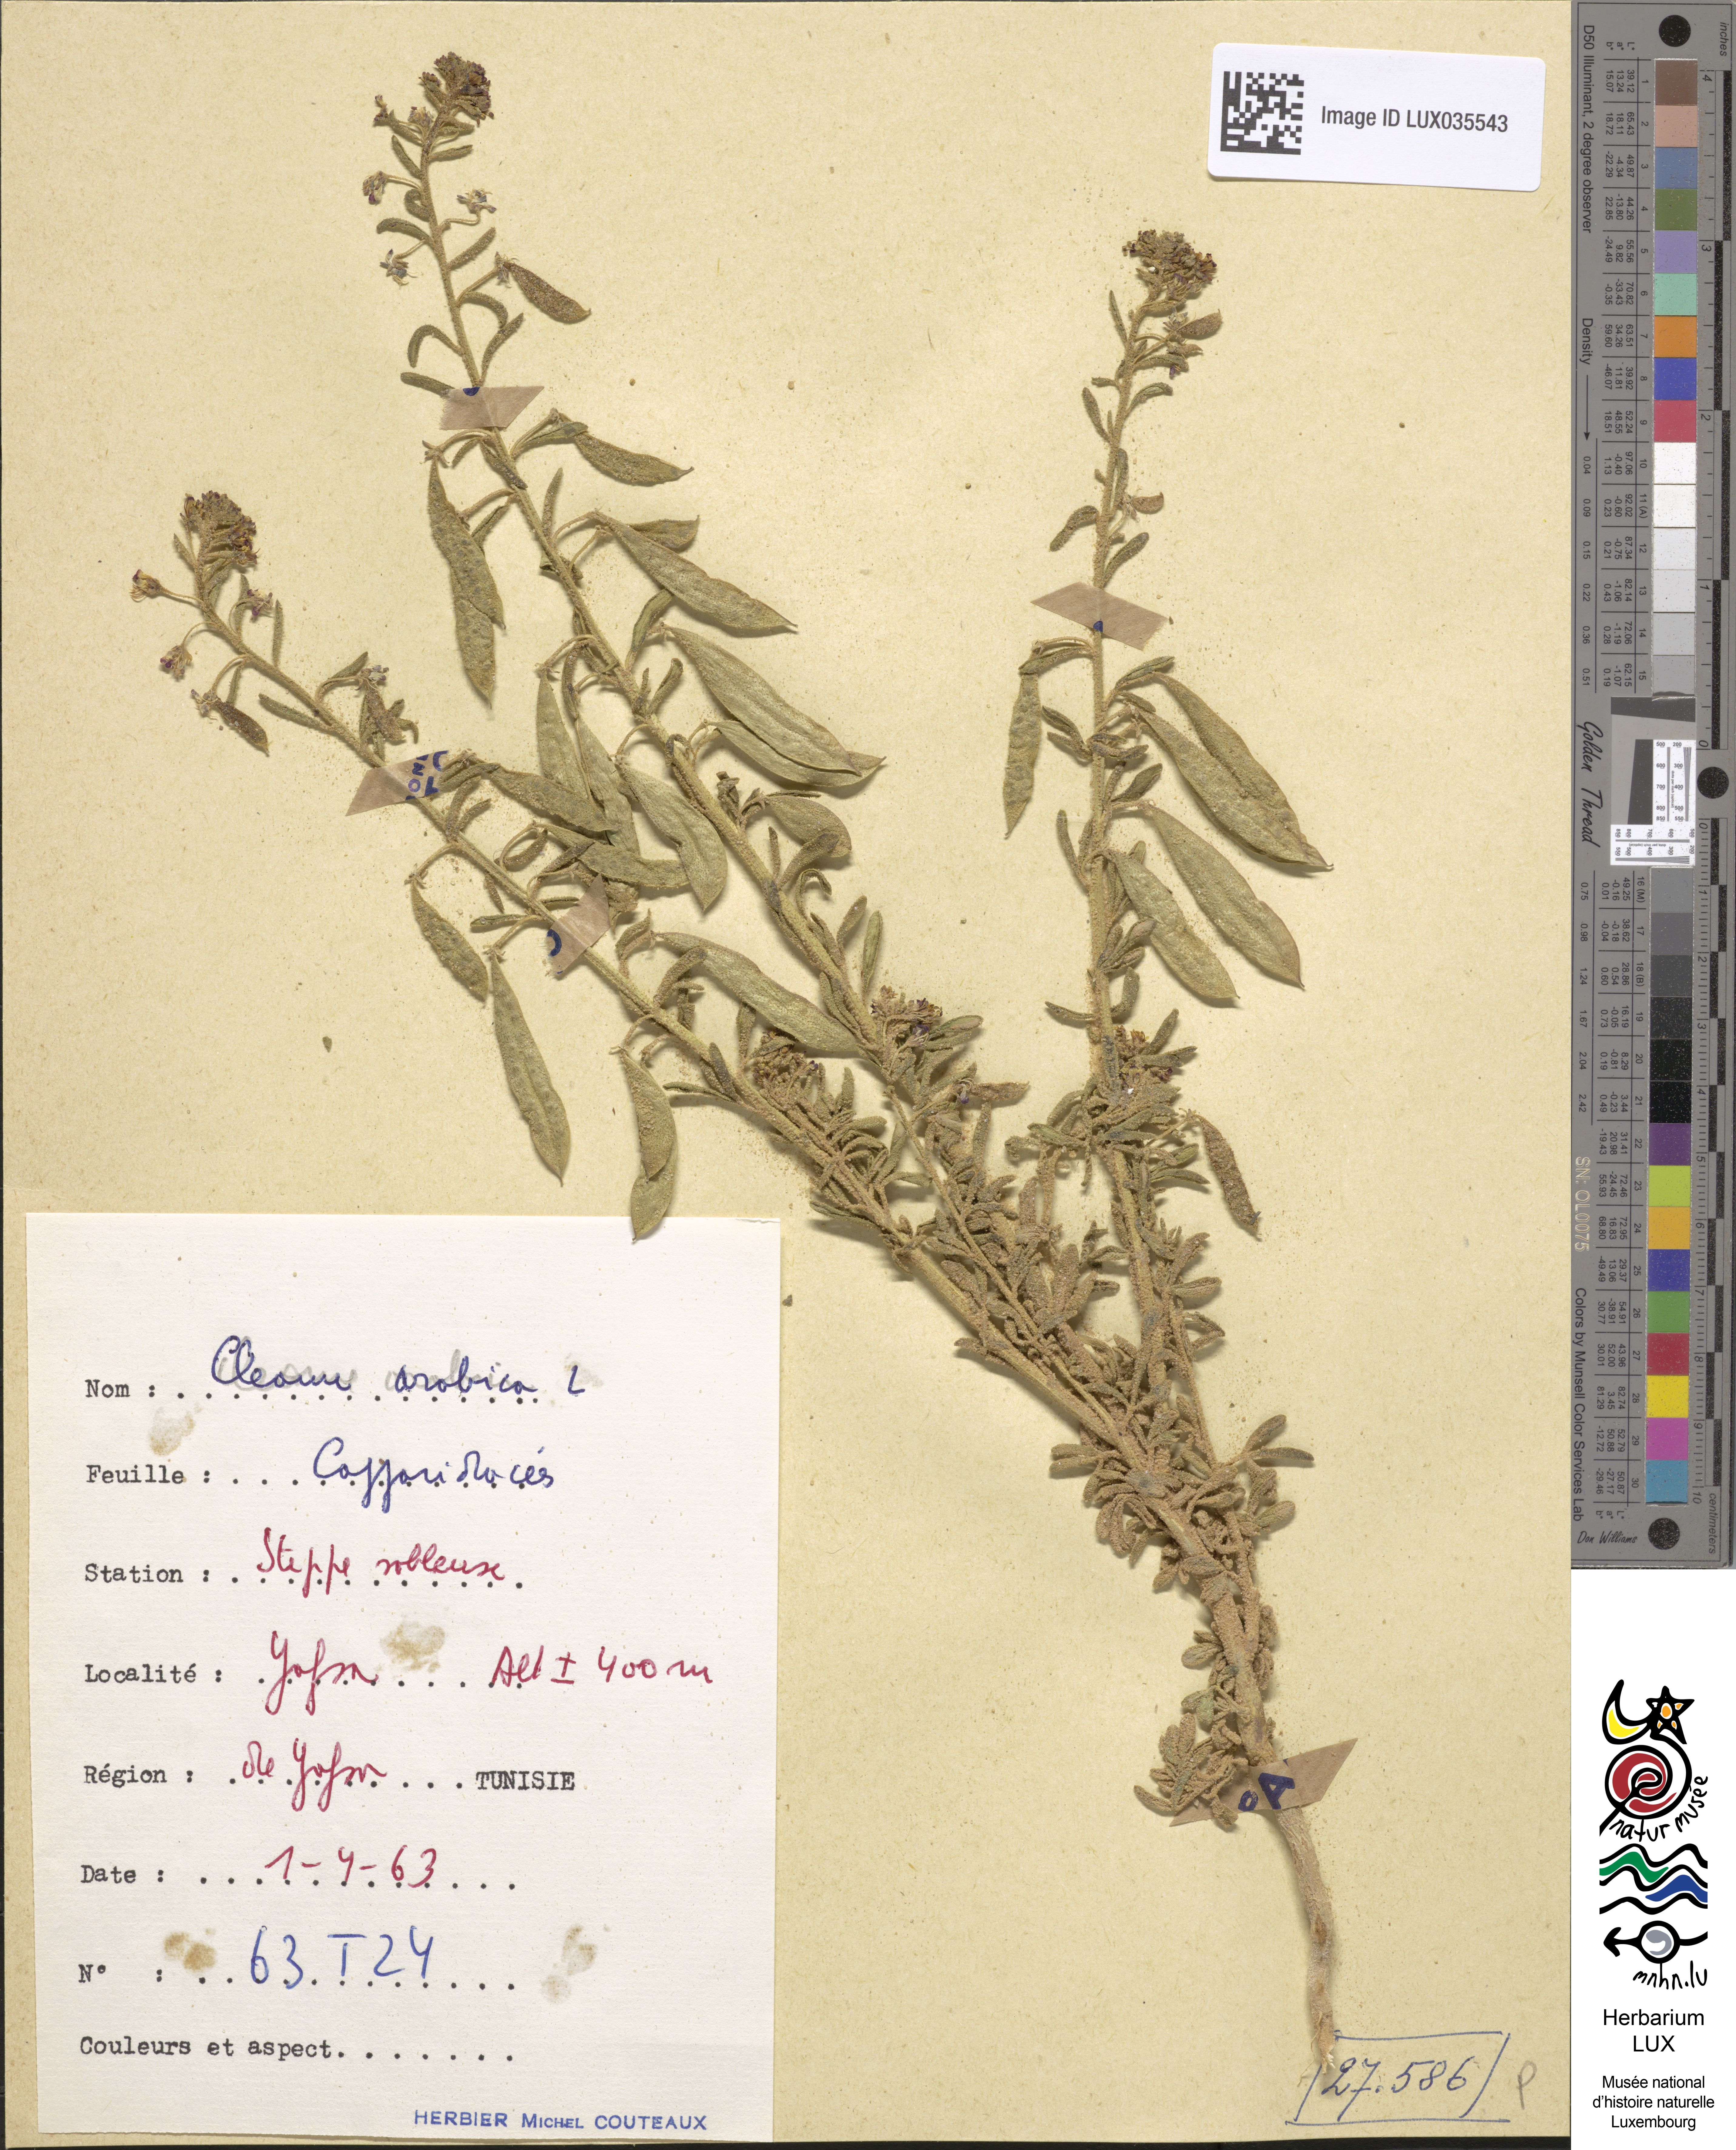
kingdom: Plantae
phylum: Tracheophyta
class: Magnoliopsida
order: Brassicales
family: Cleomaceae
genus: Cleome
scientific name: Cleome arabica
